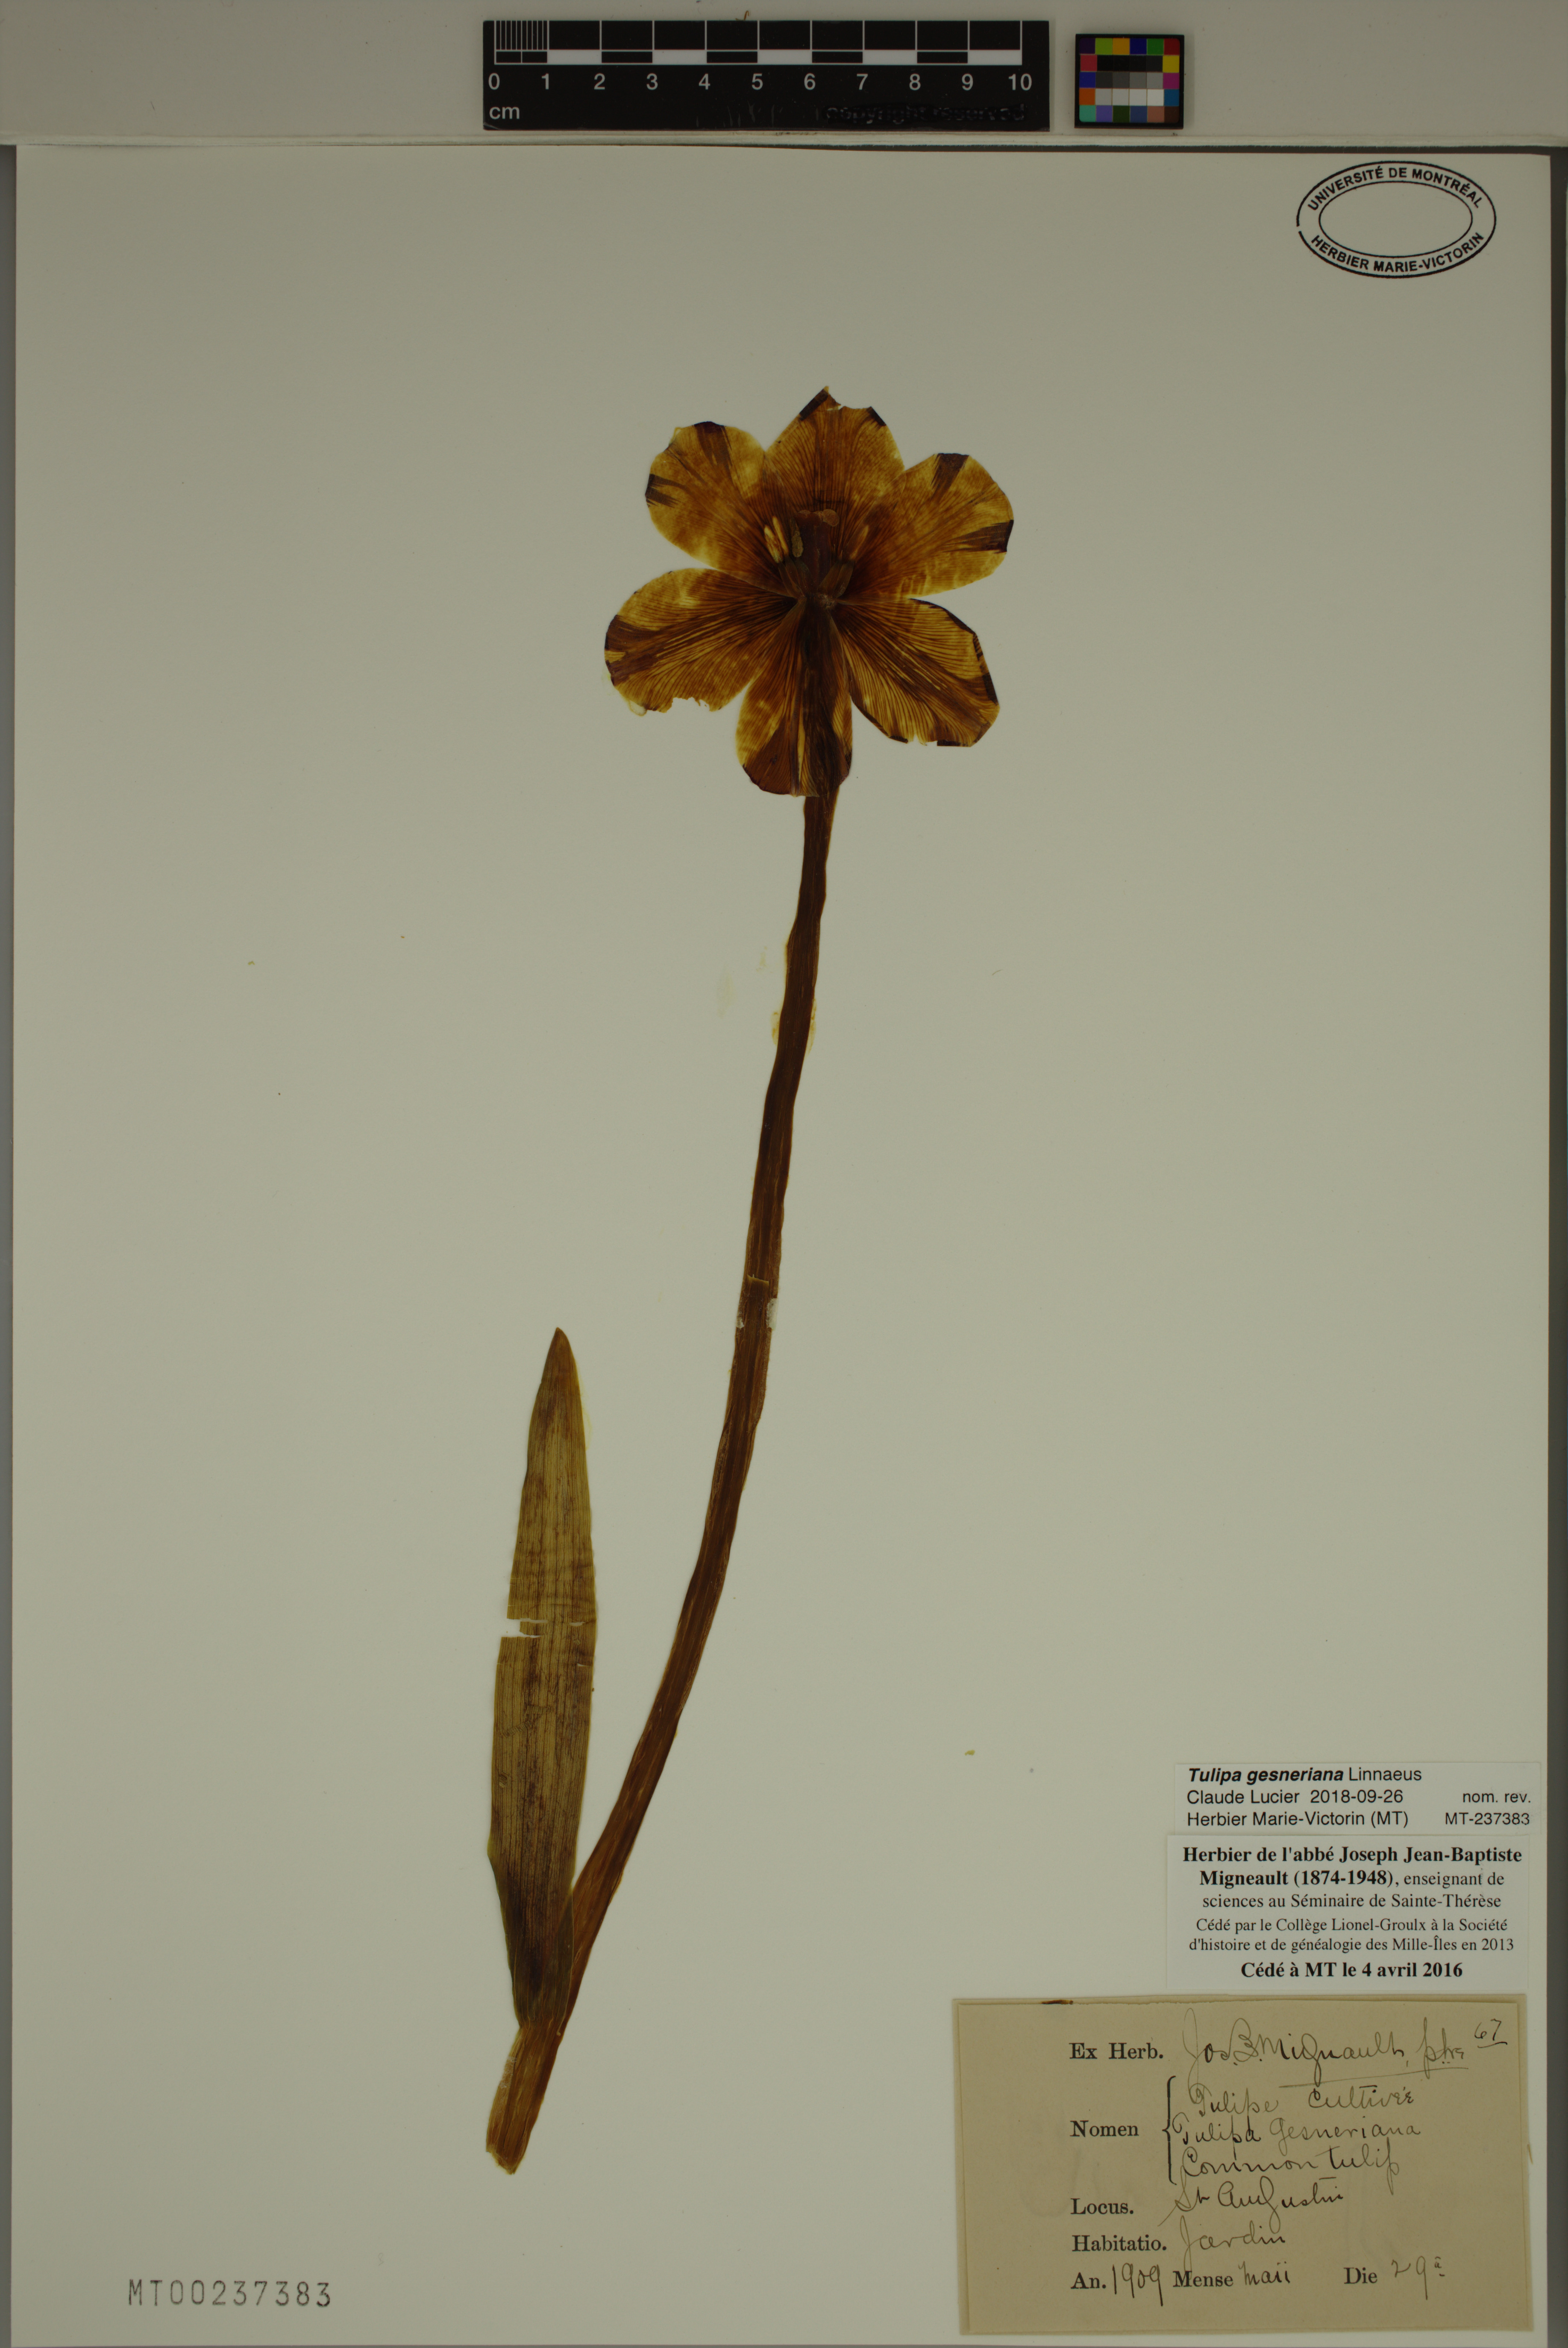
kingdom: Plantae
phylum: Tracheophyta
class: Liliopsida
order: Liliales
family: Liliaceae
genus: Tulipa
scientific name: Tulipa gesneriana
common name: Garden tulip
